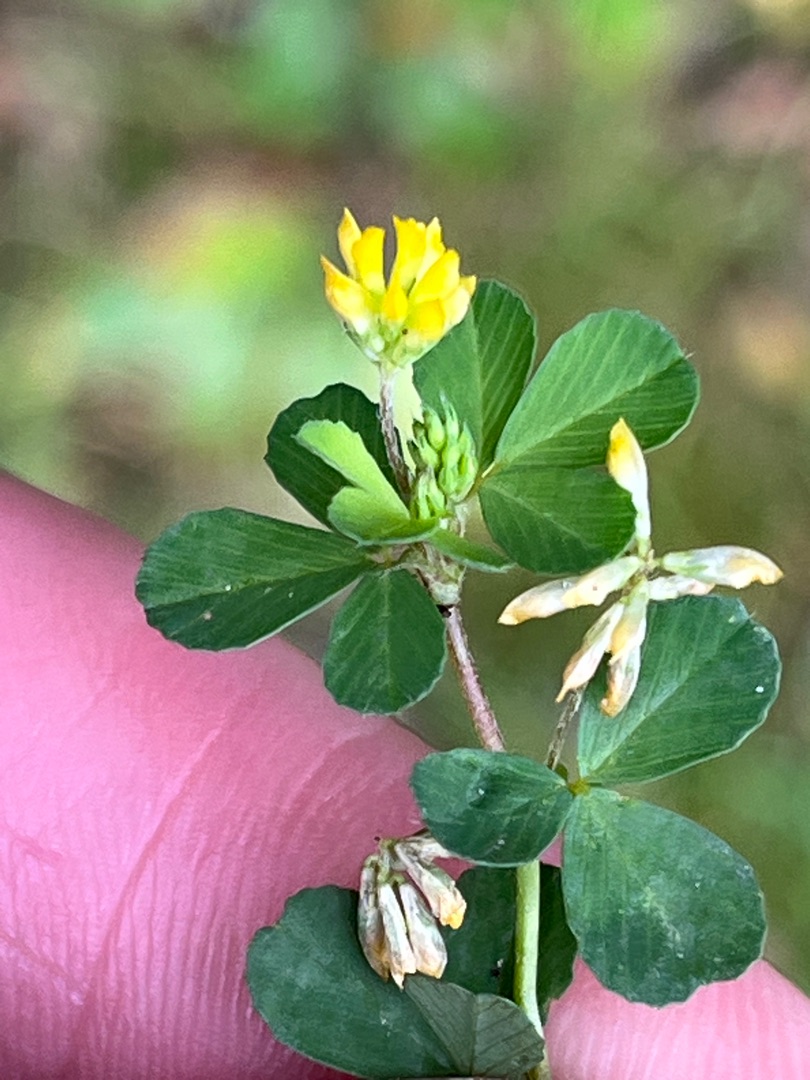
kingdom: Plantae
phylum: Tracheophyta
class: Magnoliopsida
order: Fabales
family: Fabaceae
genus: Trifolium
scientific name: Trifolium dubium
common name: Fin kløver
